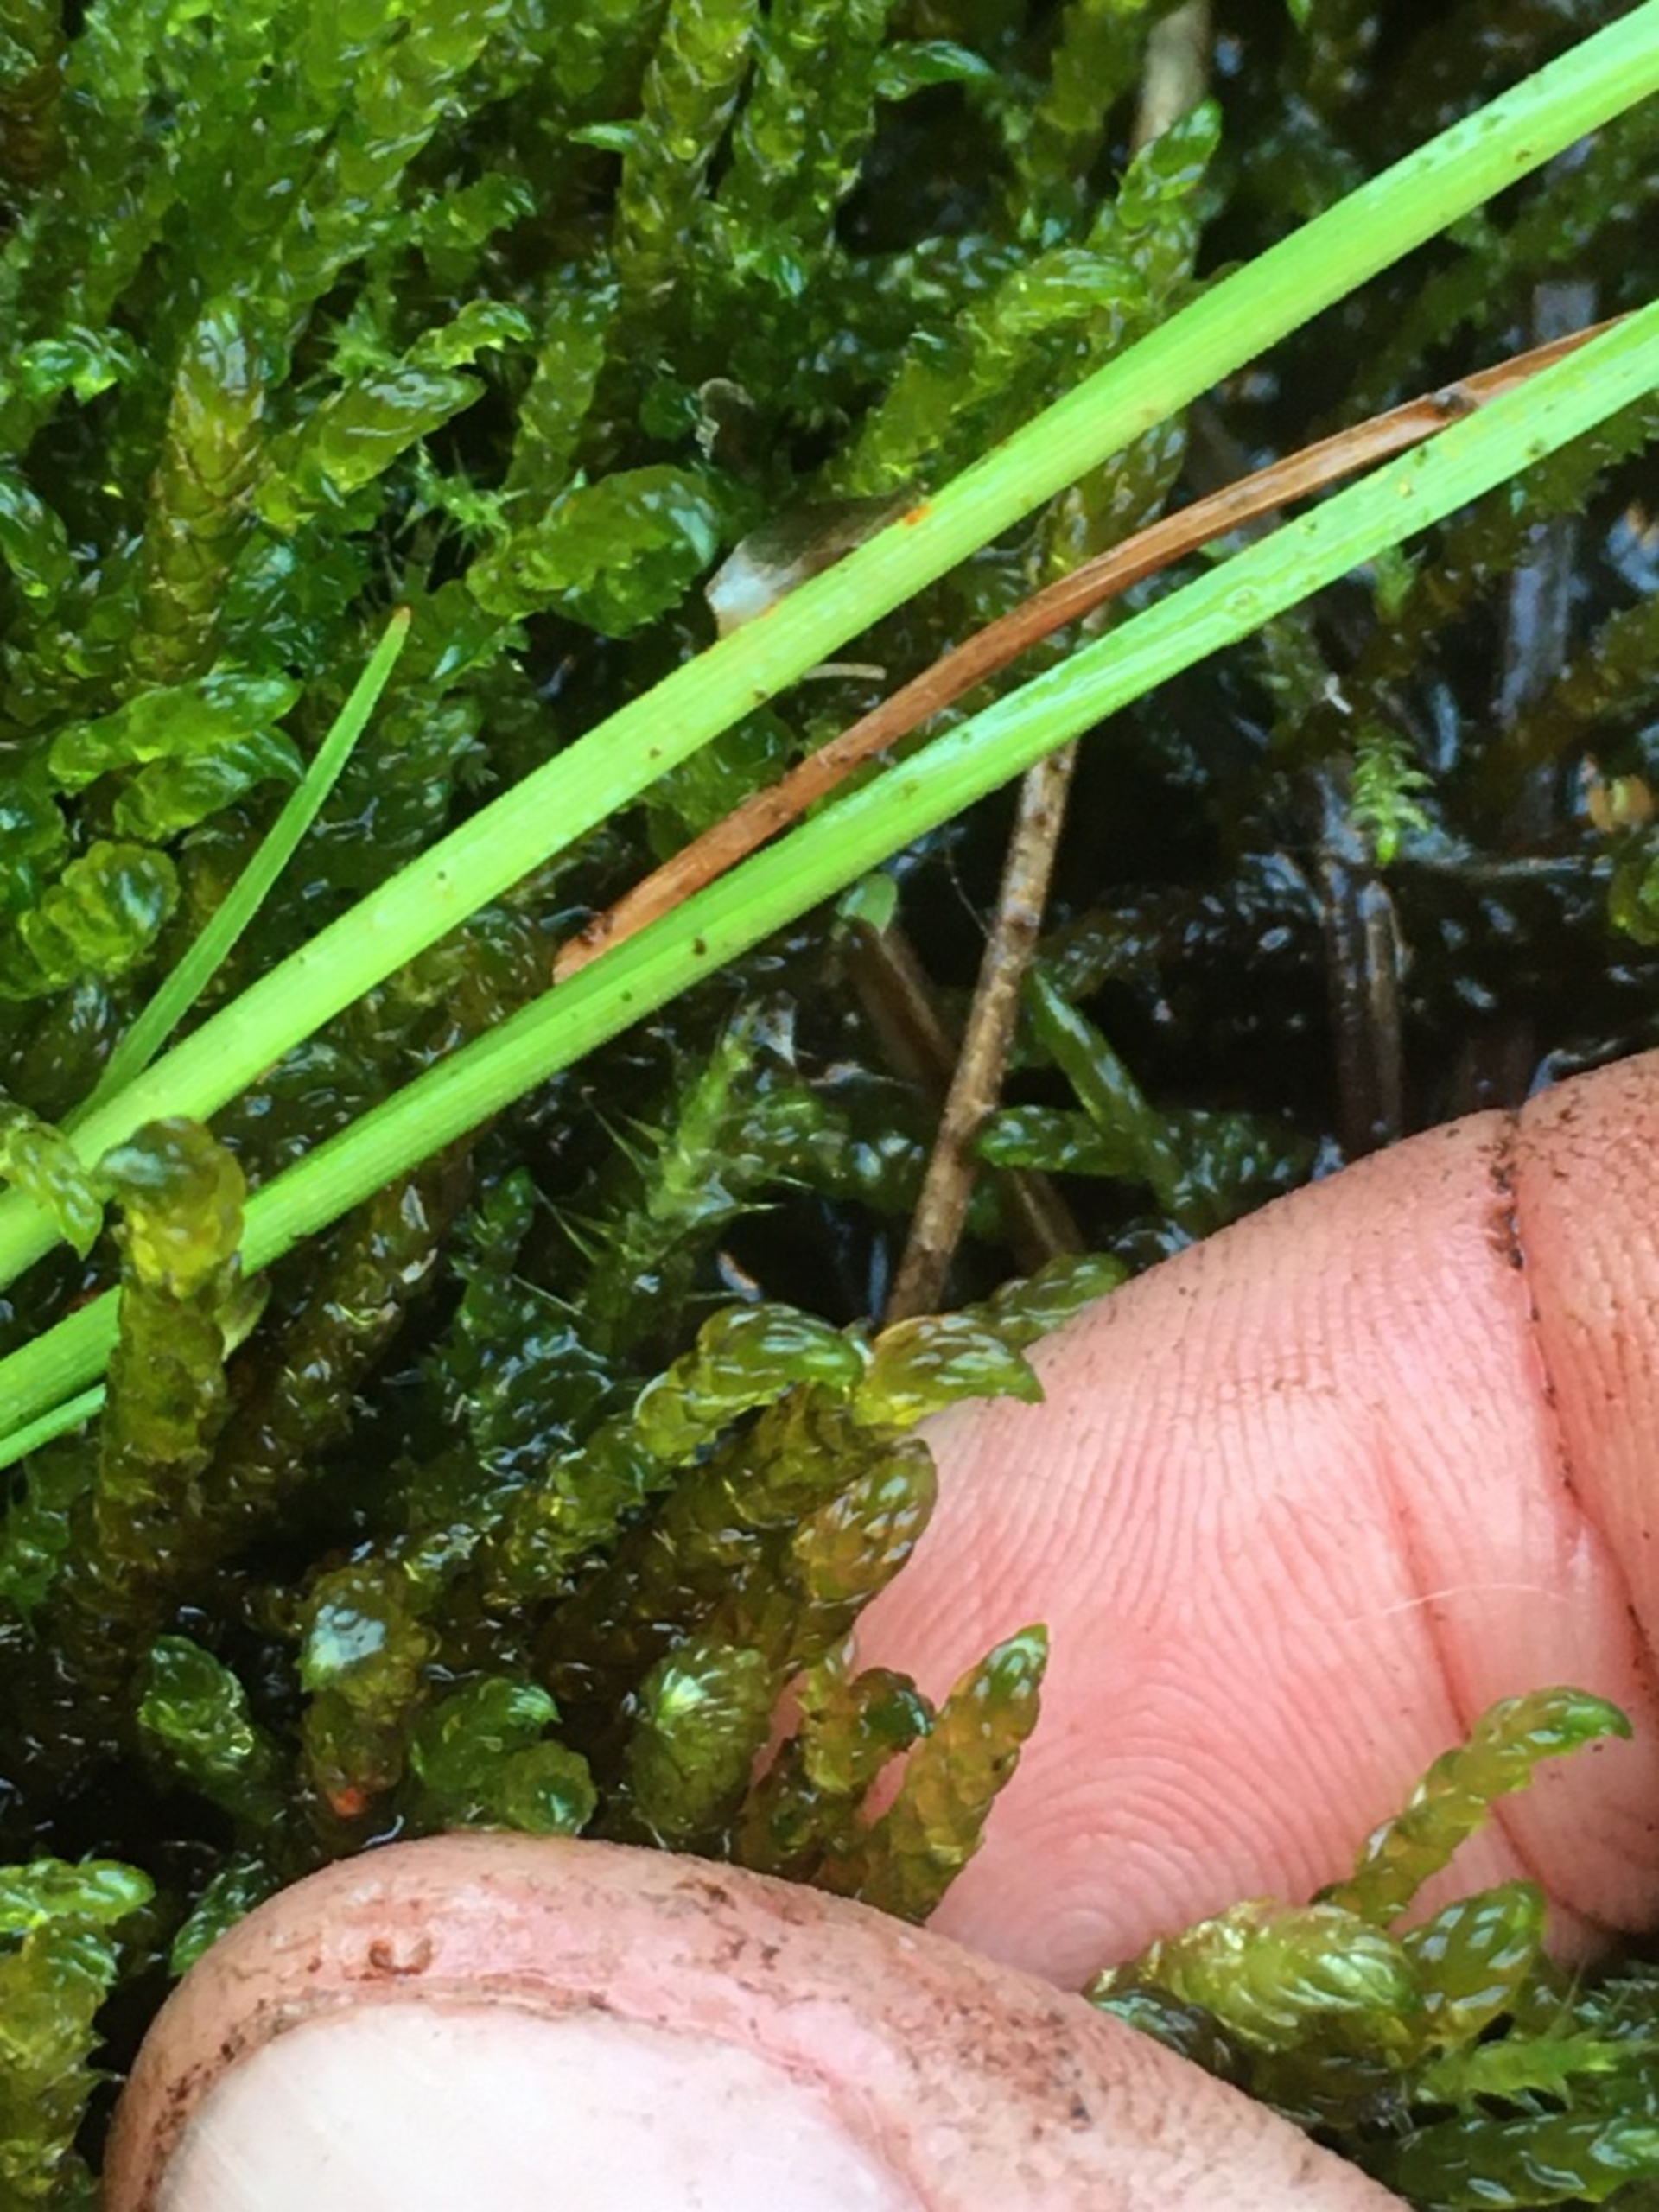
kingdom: Plantae
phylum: Bryophyta
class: Bryopsida
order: Hypnales
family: Scorpidiaceae
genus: Scorpidium
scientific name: Scorpidium scorpioides
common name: Stor skorpionmos
